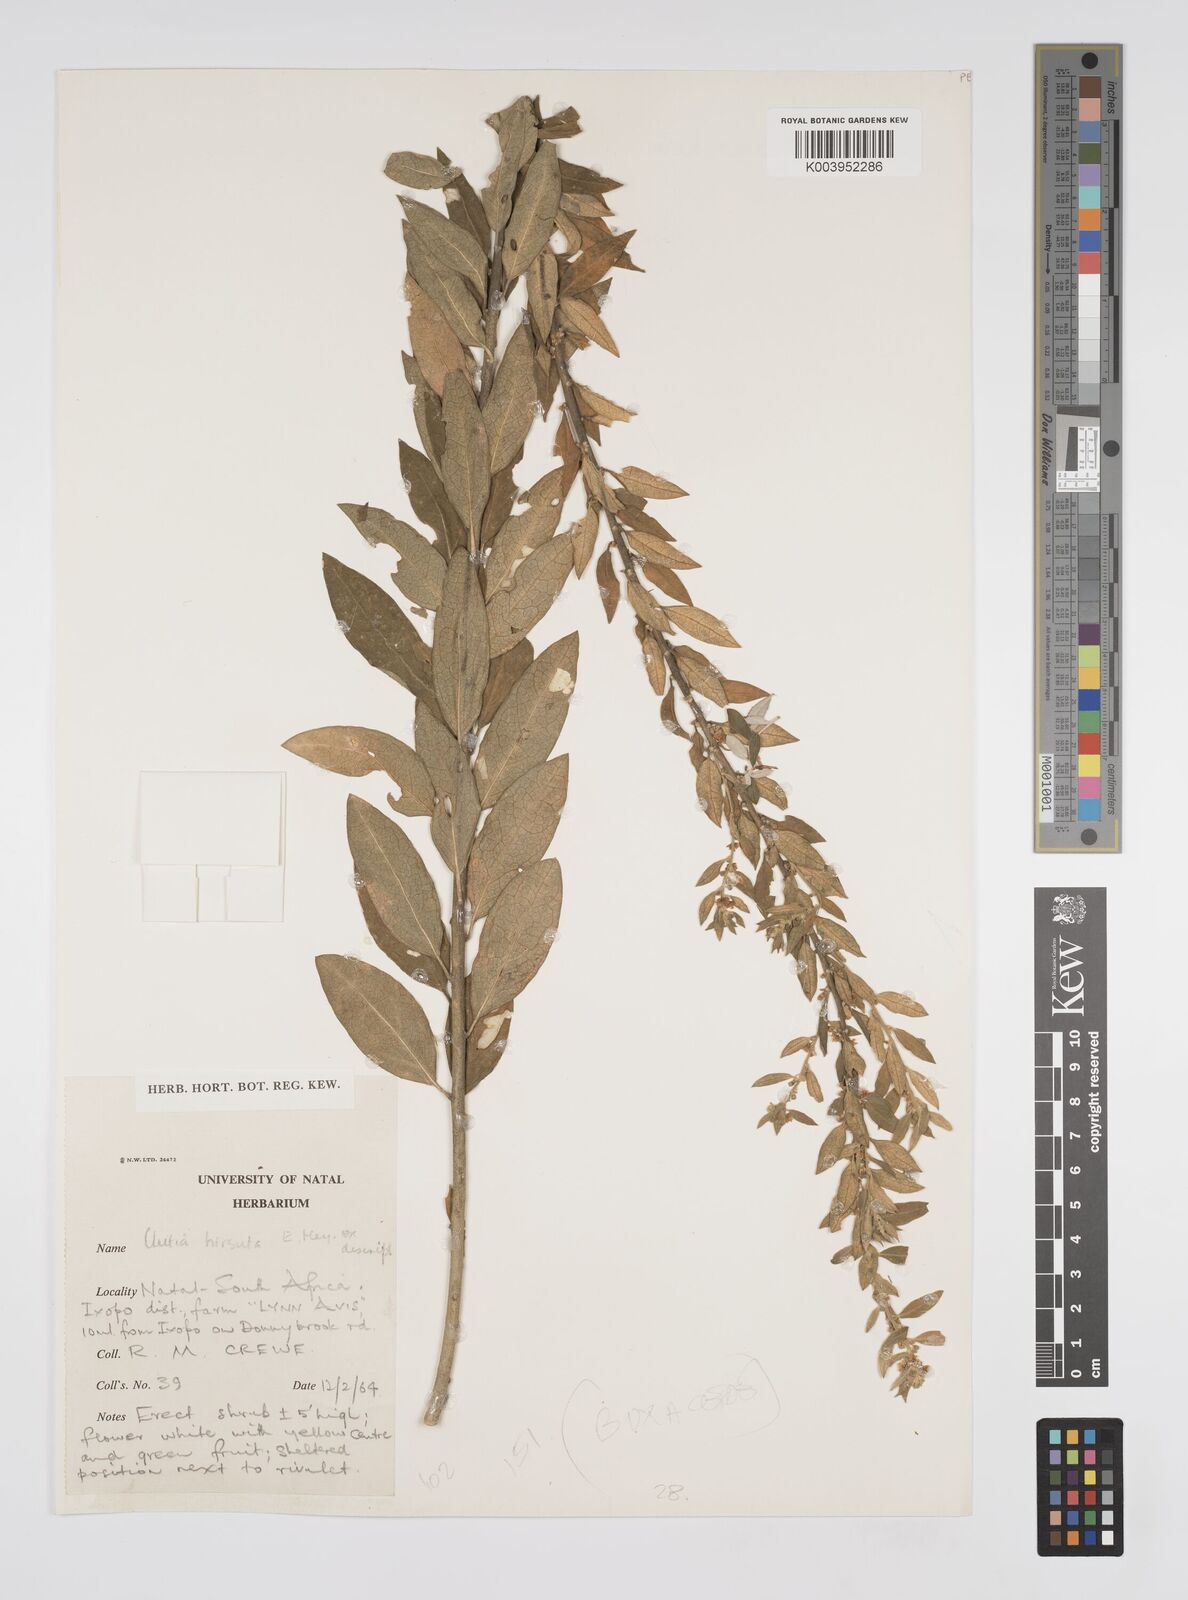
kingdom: Plantae
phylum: Tracheophyta
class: Magnoliopsida
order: Malpighiales
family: Peraceae
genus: Clutia
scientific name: Clutia affinis
